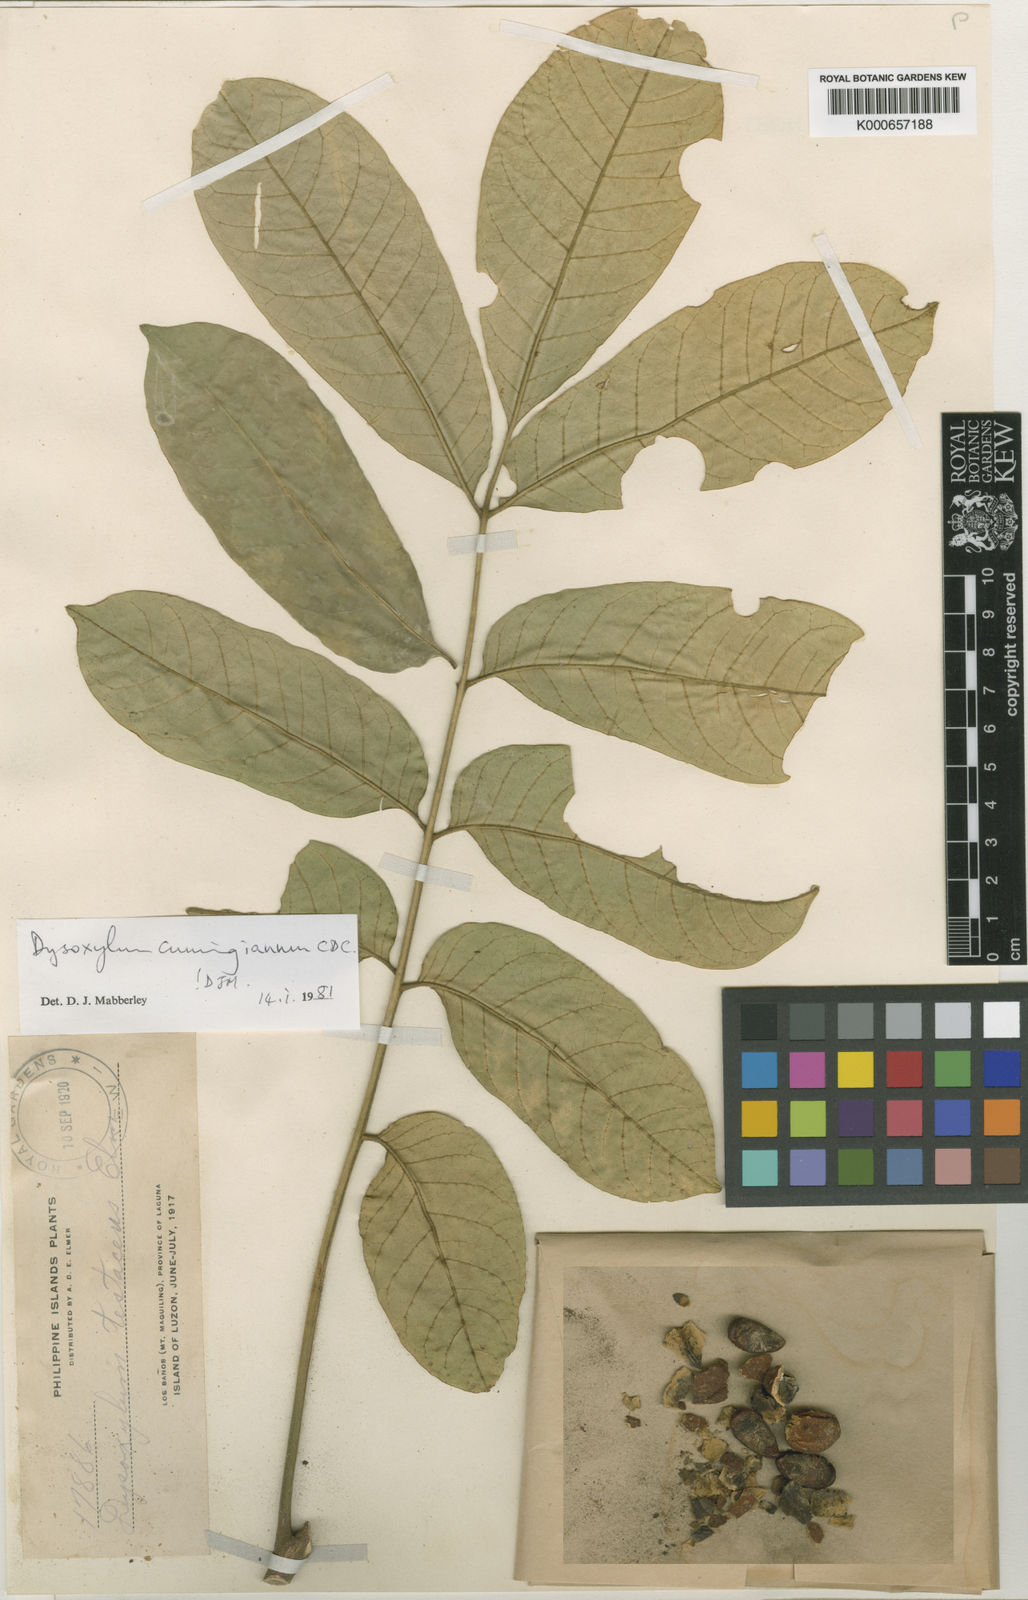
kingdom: Plantae
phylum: Tracheophyta
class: Magnoliopsida
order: Sapindales
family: Meliaceae
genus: Epicharis
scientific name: Epicharis cumingiana
